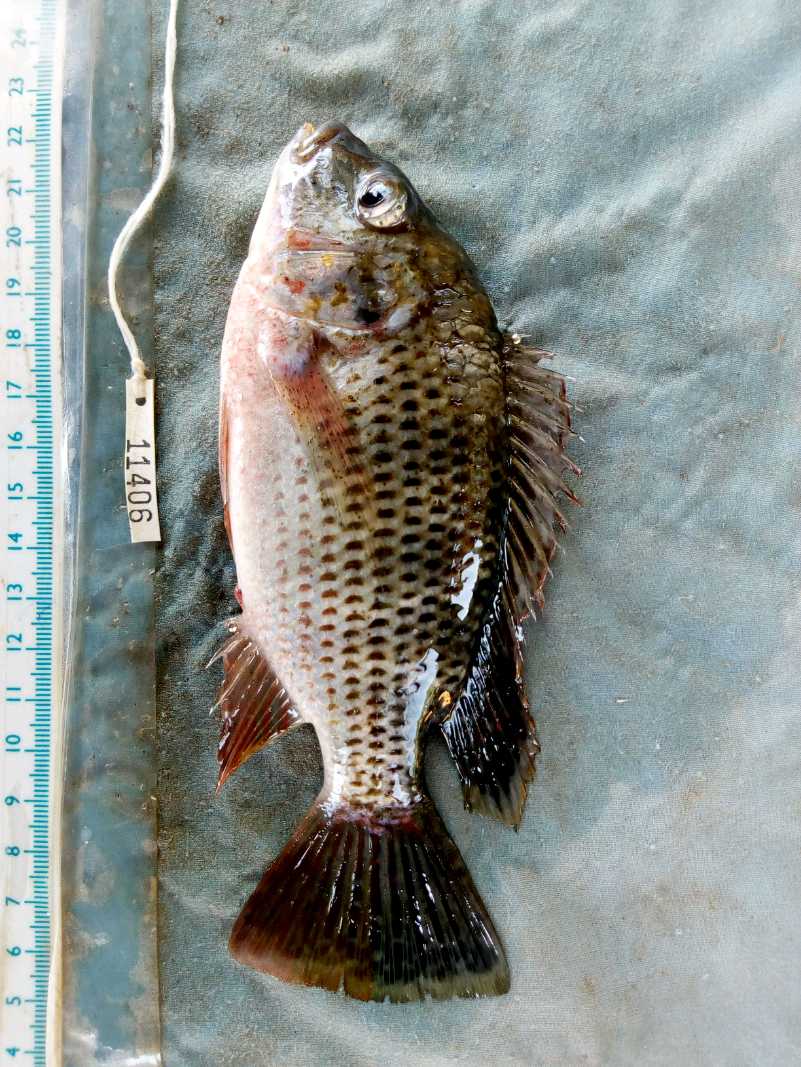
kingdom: Animalia
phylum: Chordata
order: Perciformes
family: Cichlidae
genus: Coptodon
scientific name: Coptodon rendalli
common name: Redbreast tilapia
